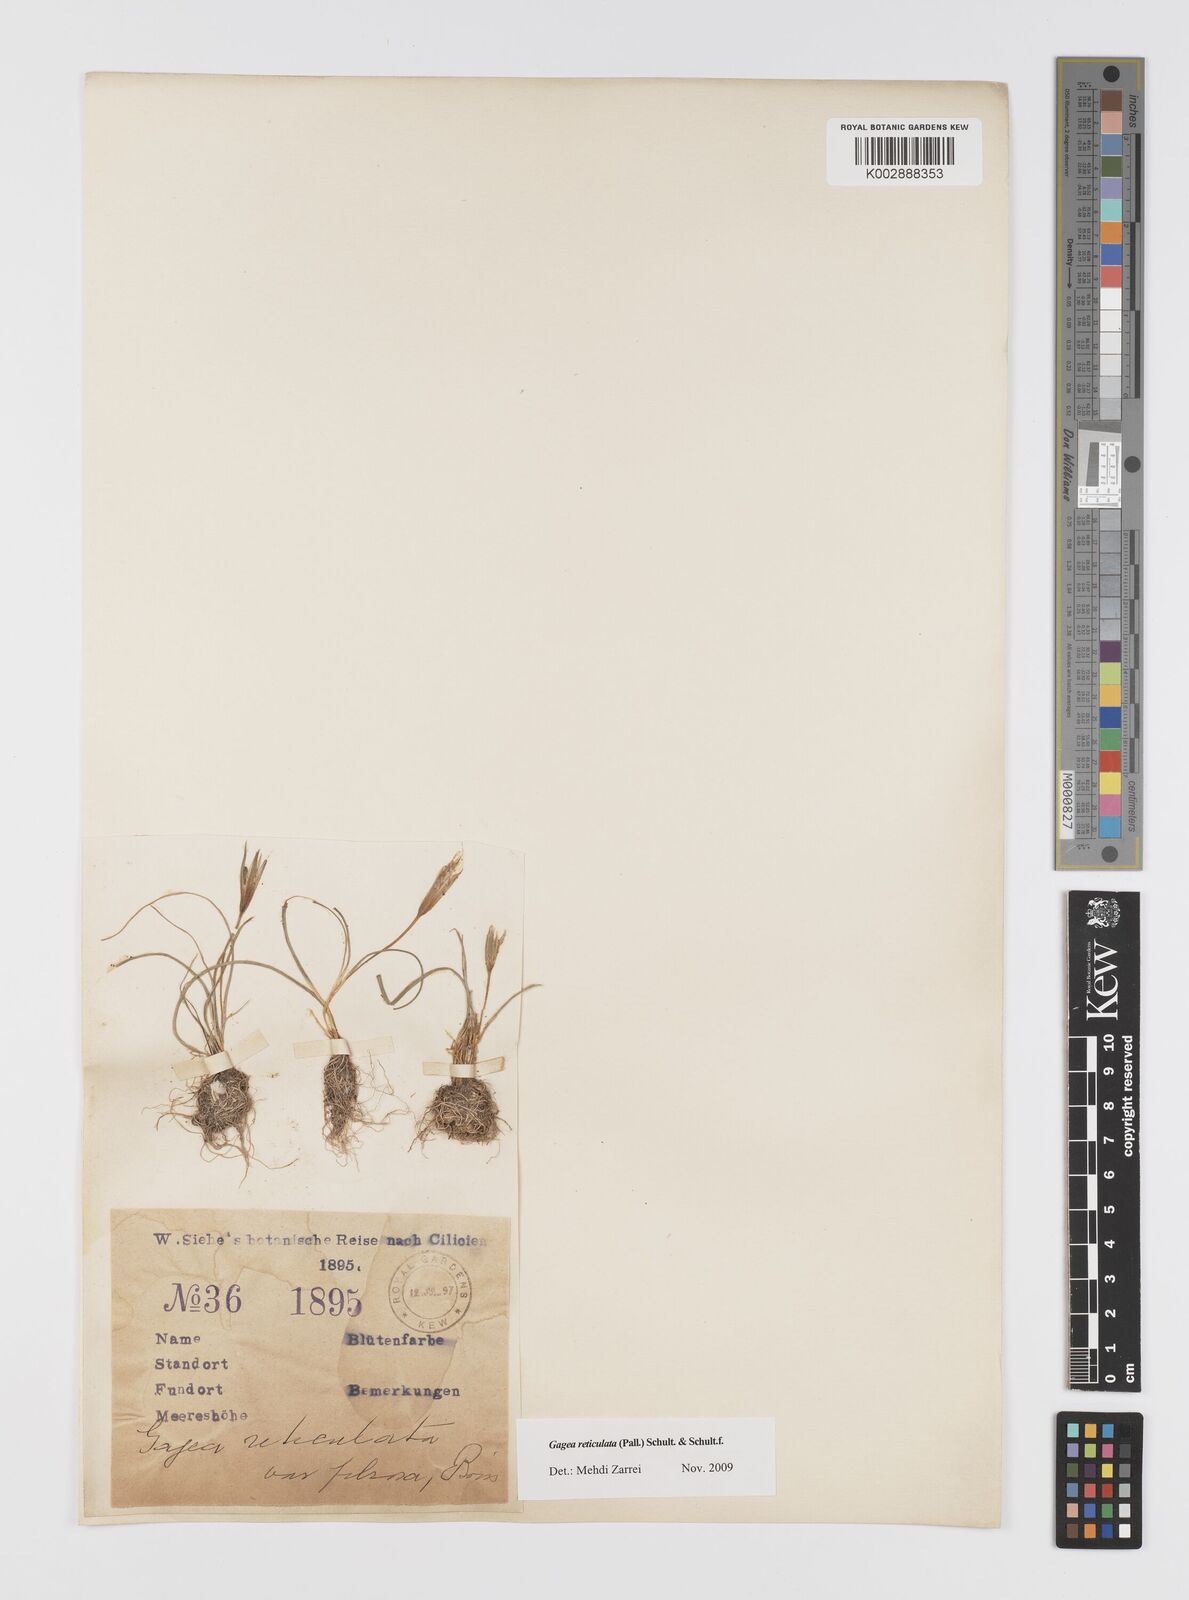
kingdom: Plantae
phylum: Tracheophyta
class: Liliopsida
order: Liliales
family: Liliaceae
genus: Gagea
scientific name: Gagea reticulata
